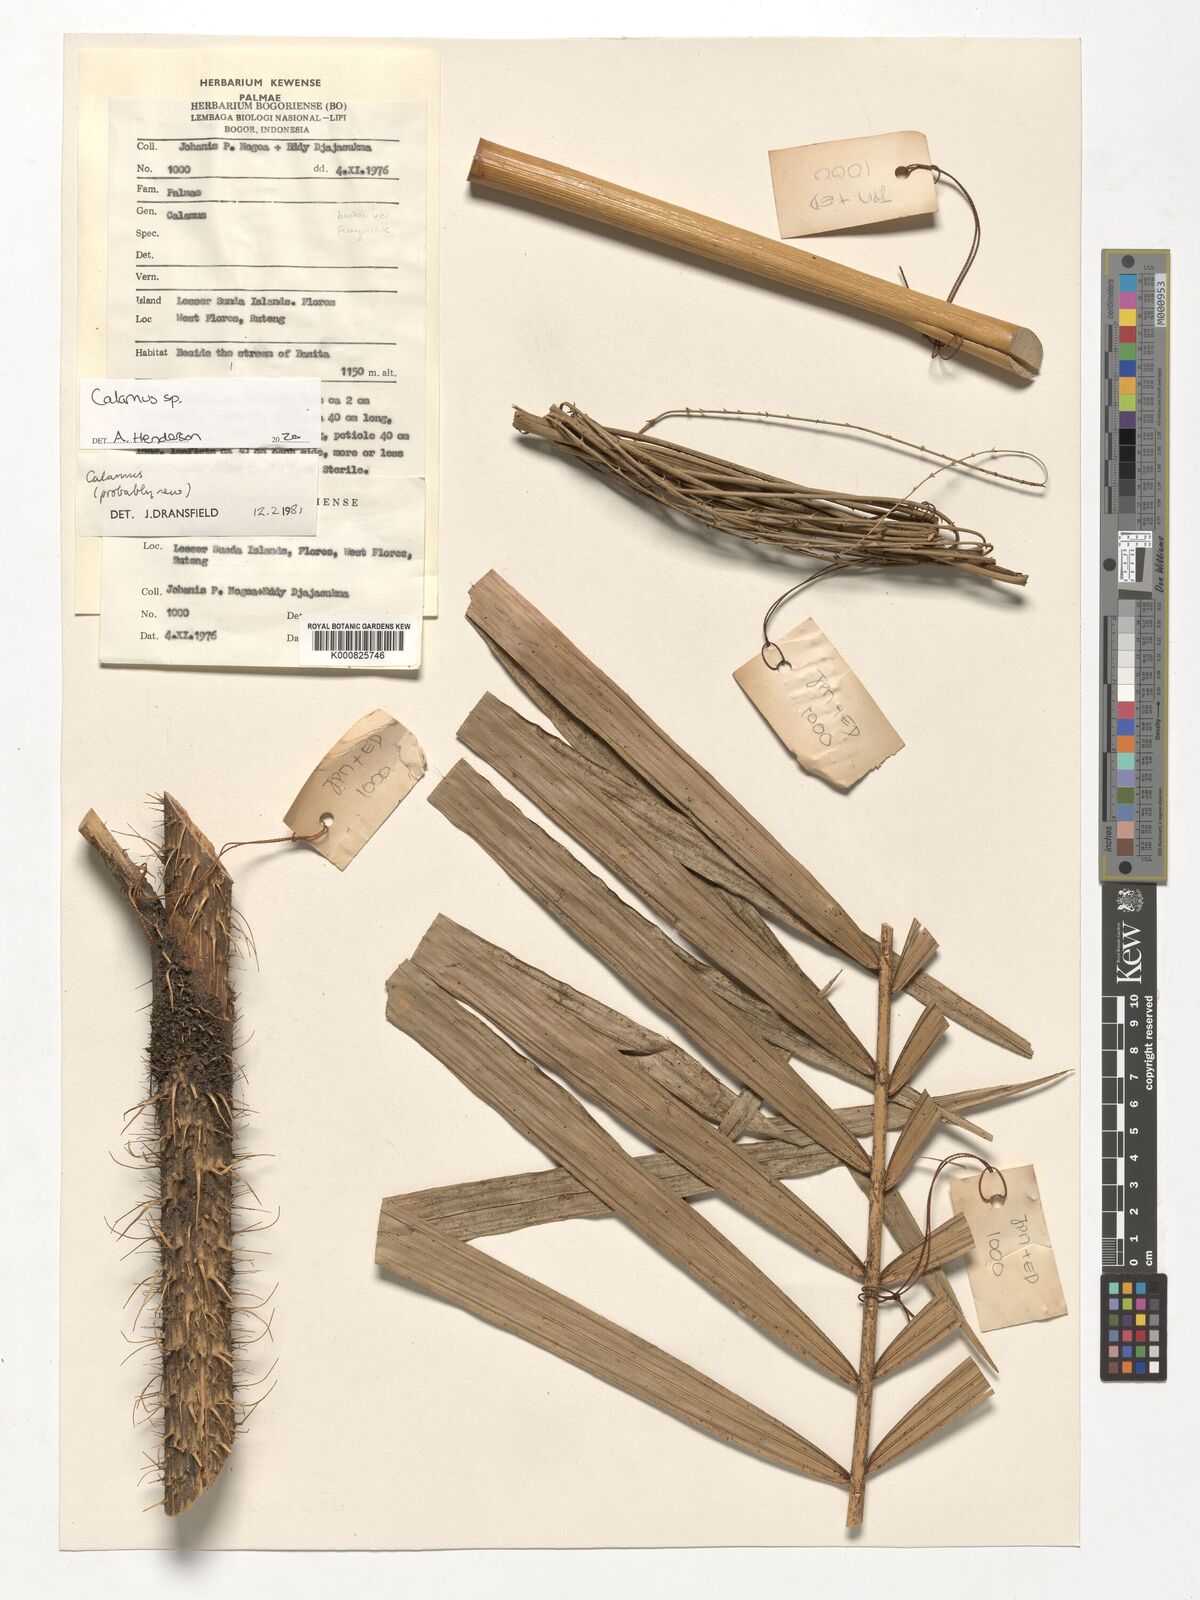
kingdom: Plantae
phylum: Tracheophyta
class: Liliopsida
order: Arecales
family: Arecaceae
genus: Calamus
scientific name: Calamus
